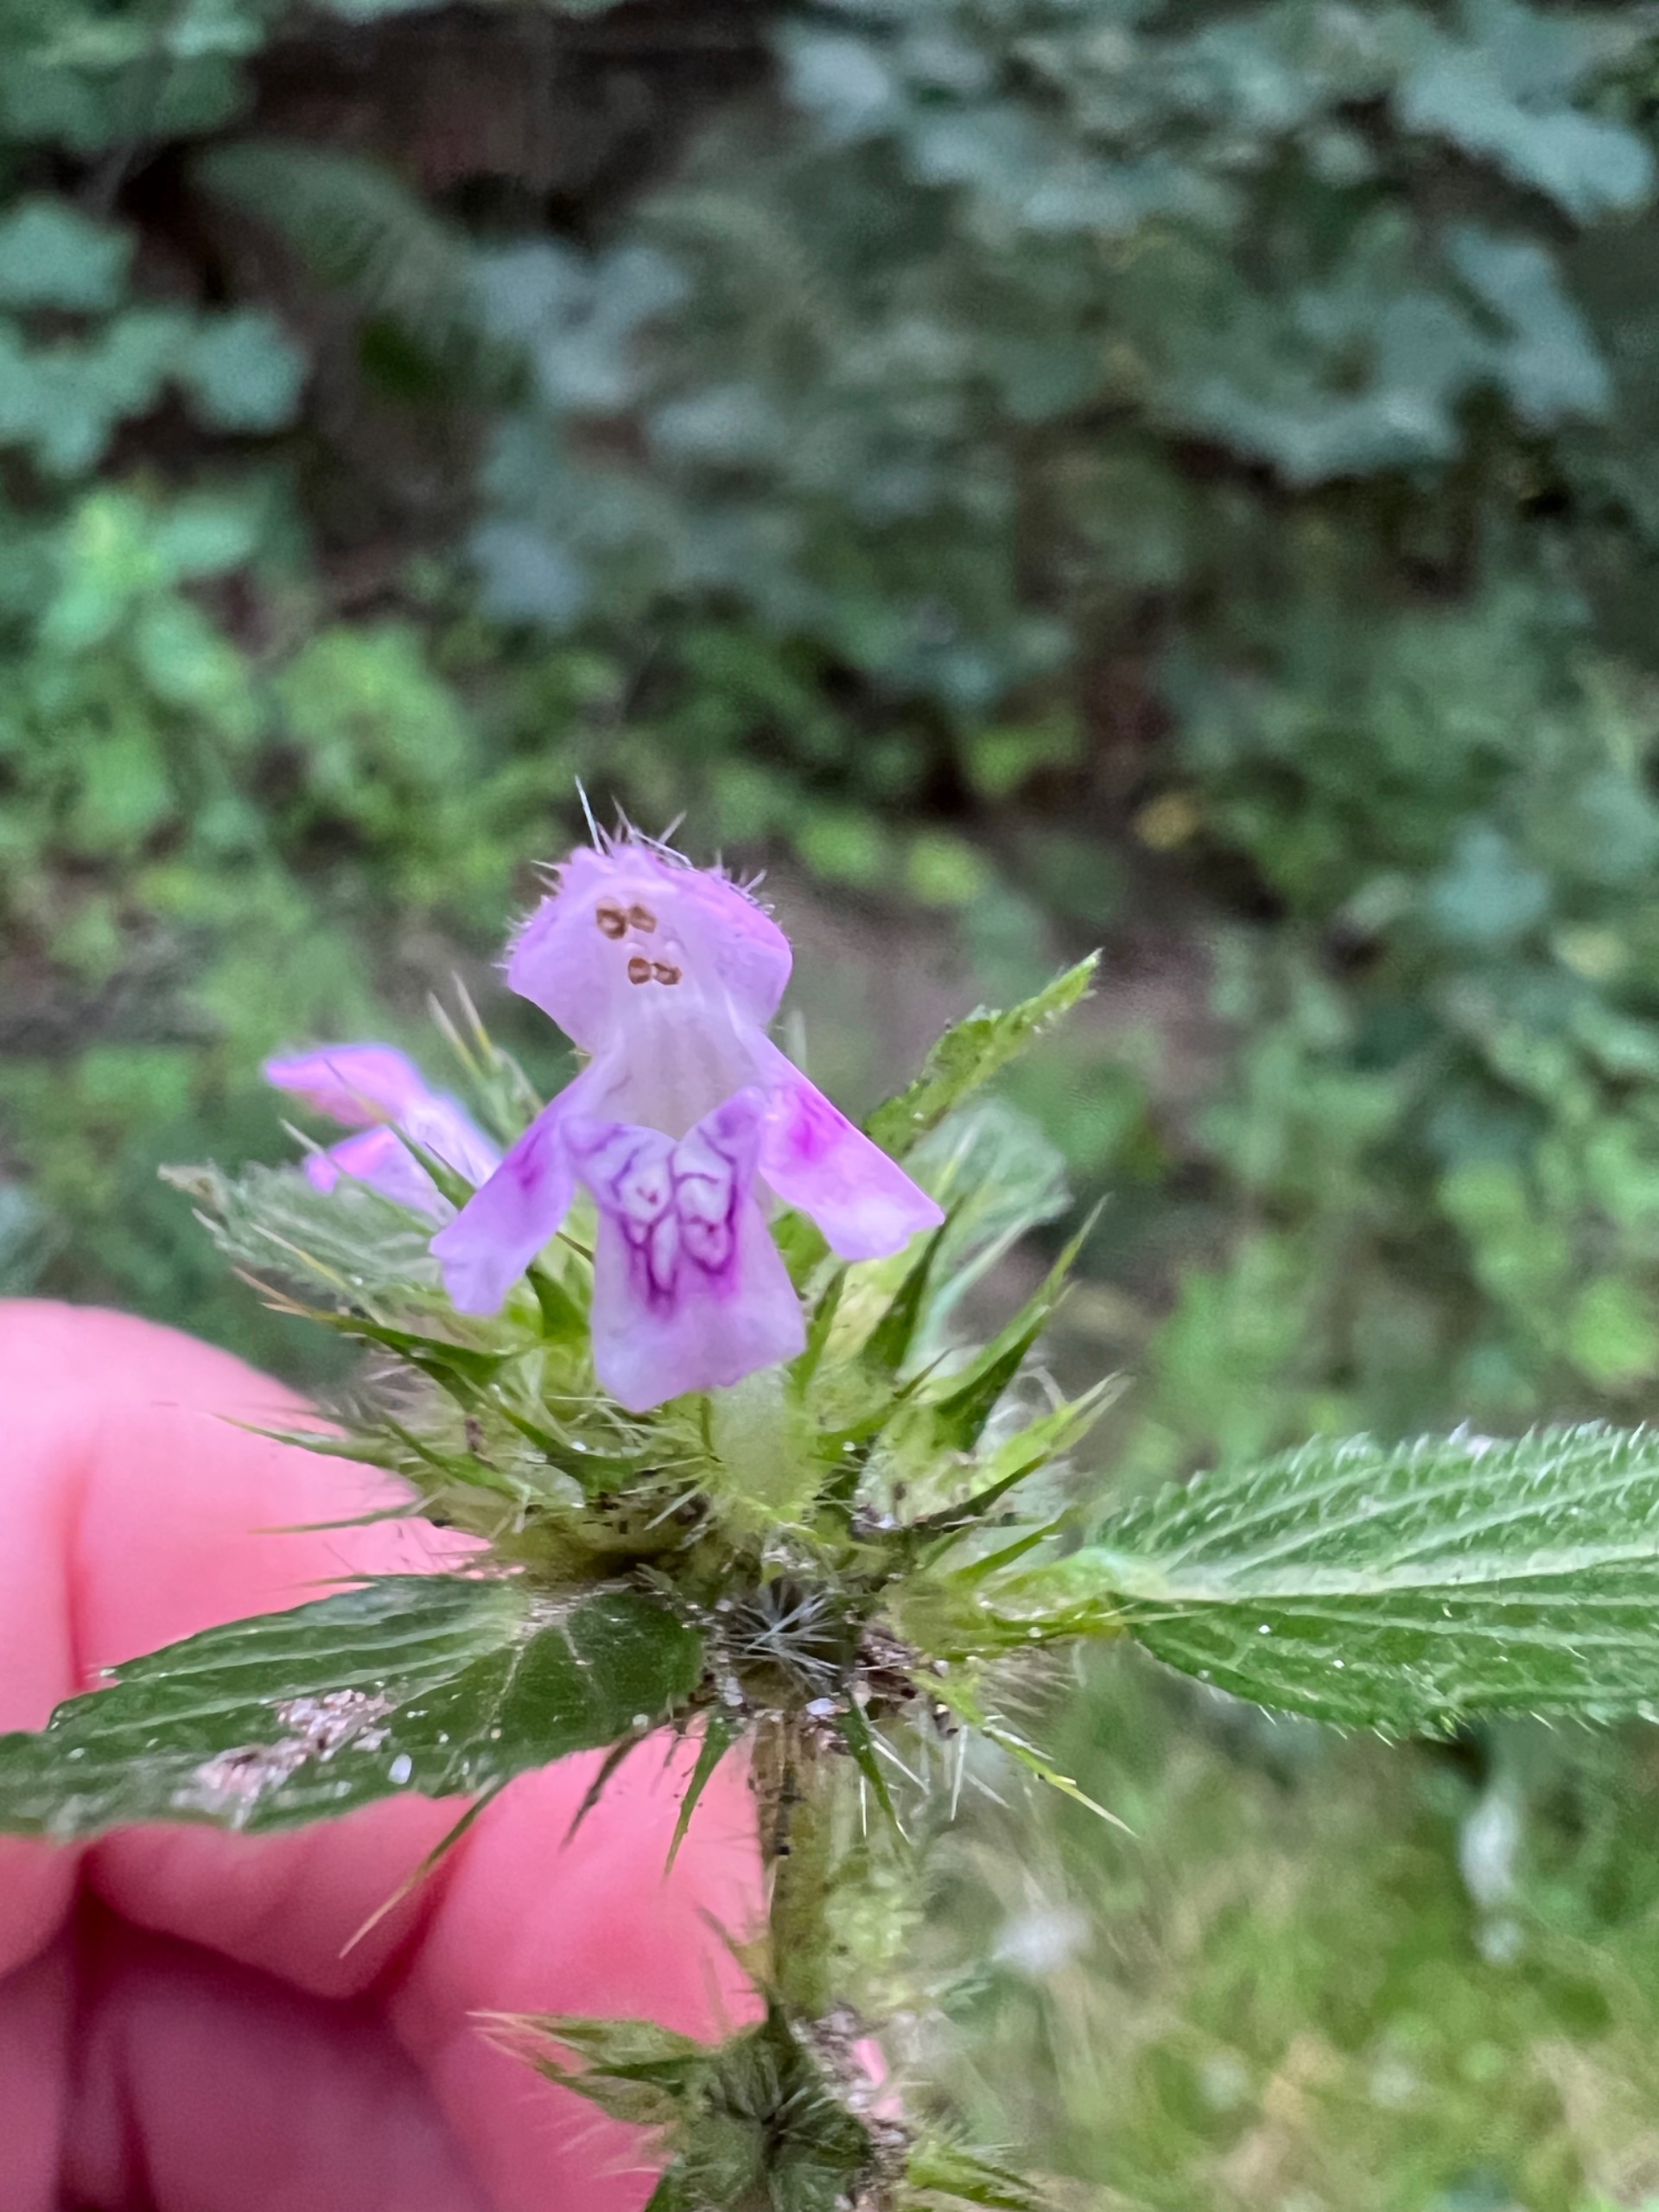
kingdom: Plantae
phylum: Tracheophyta
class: Magnoliopsida
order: Lamiales
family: Lamiaceae
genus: Galeopsis
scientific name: Galeopsis tetrahit
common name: Almindelig hanekro
